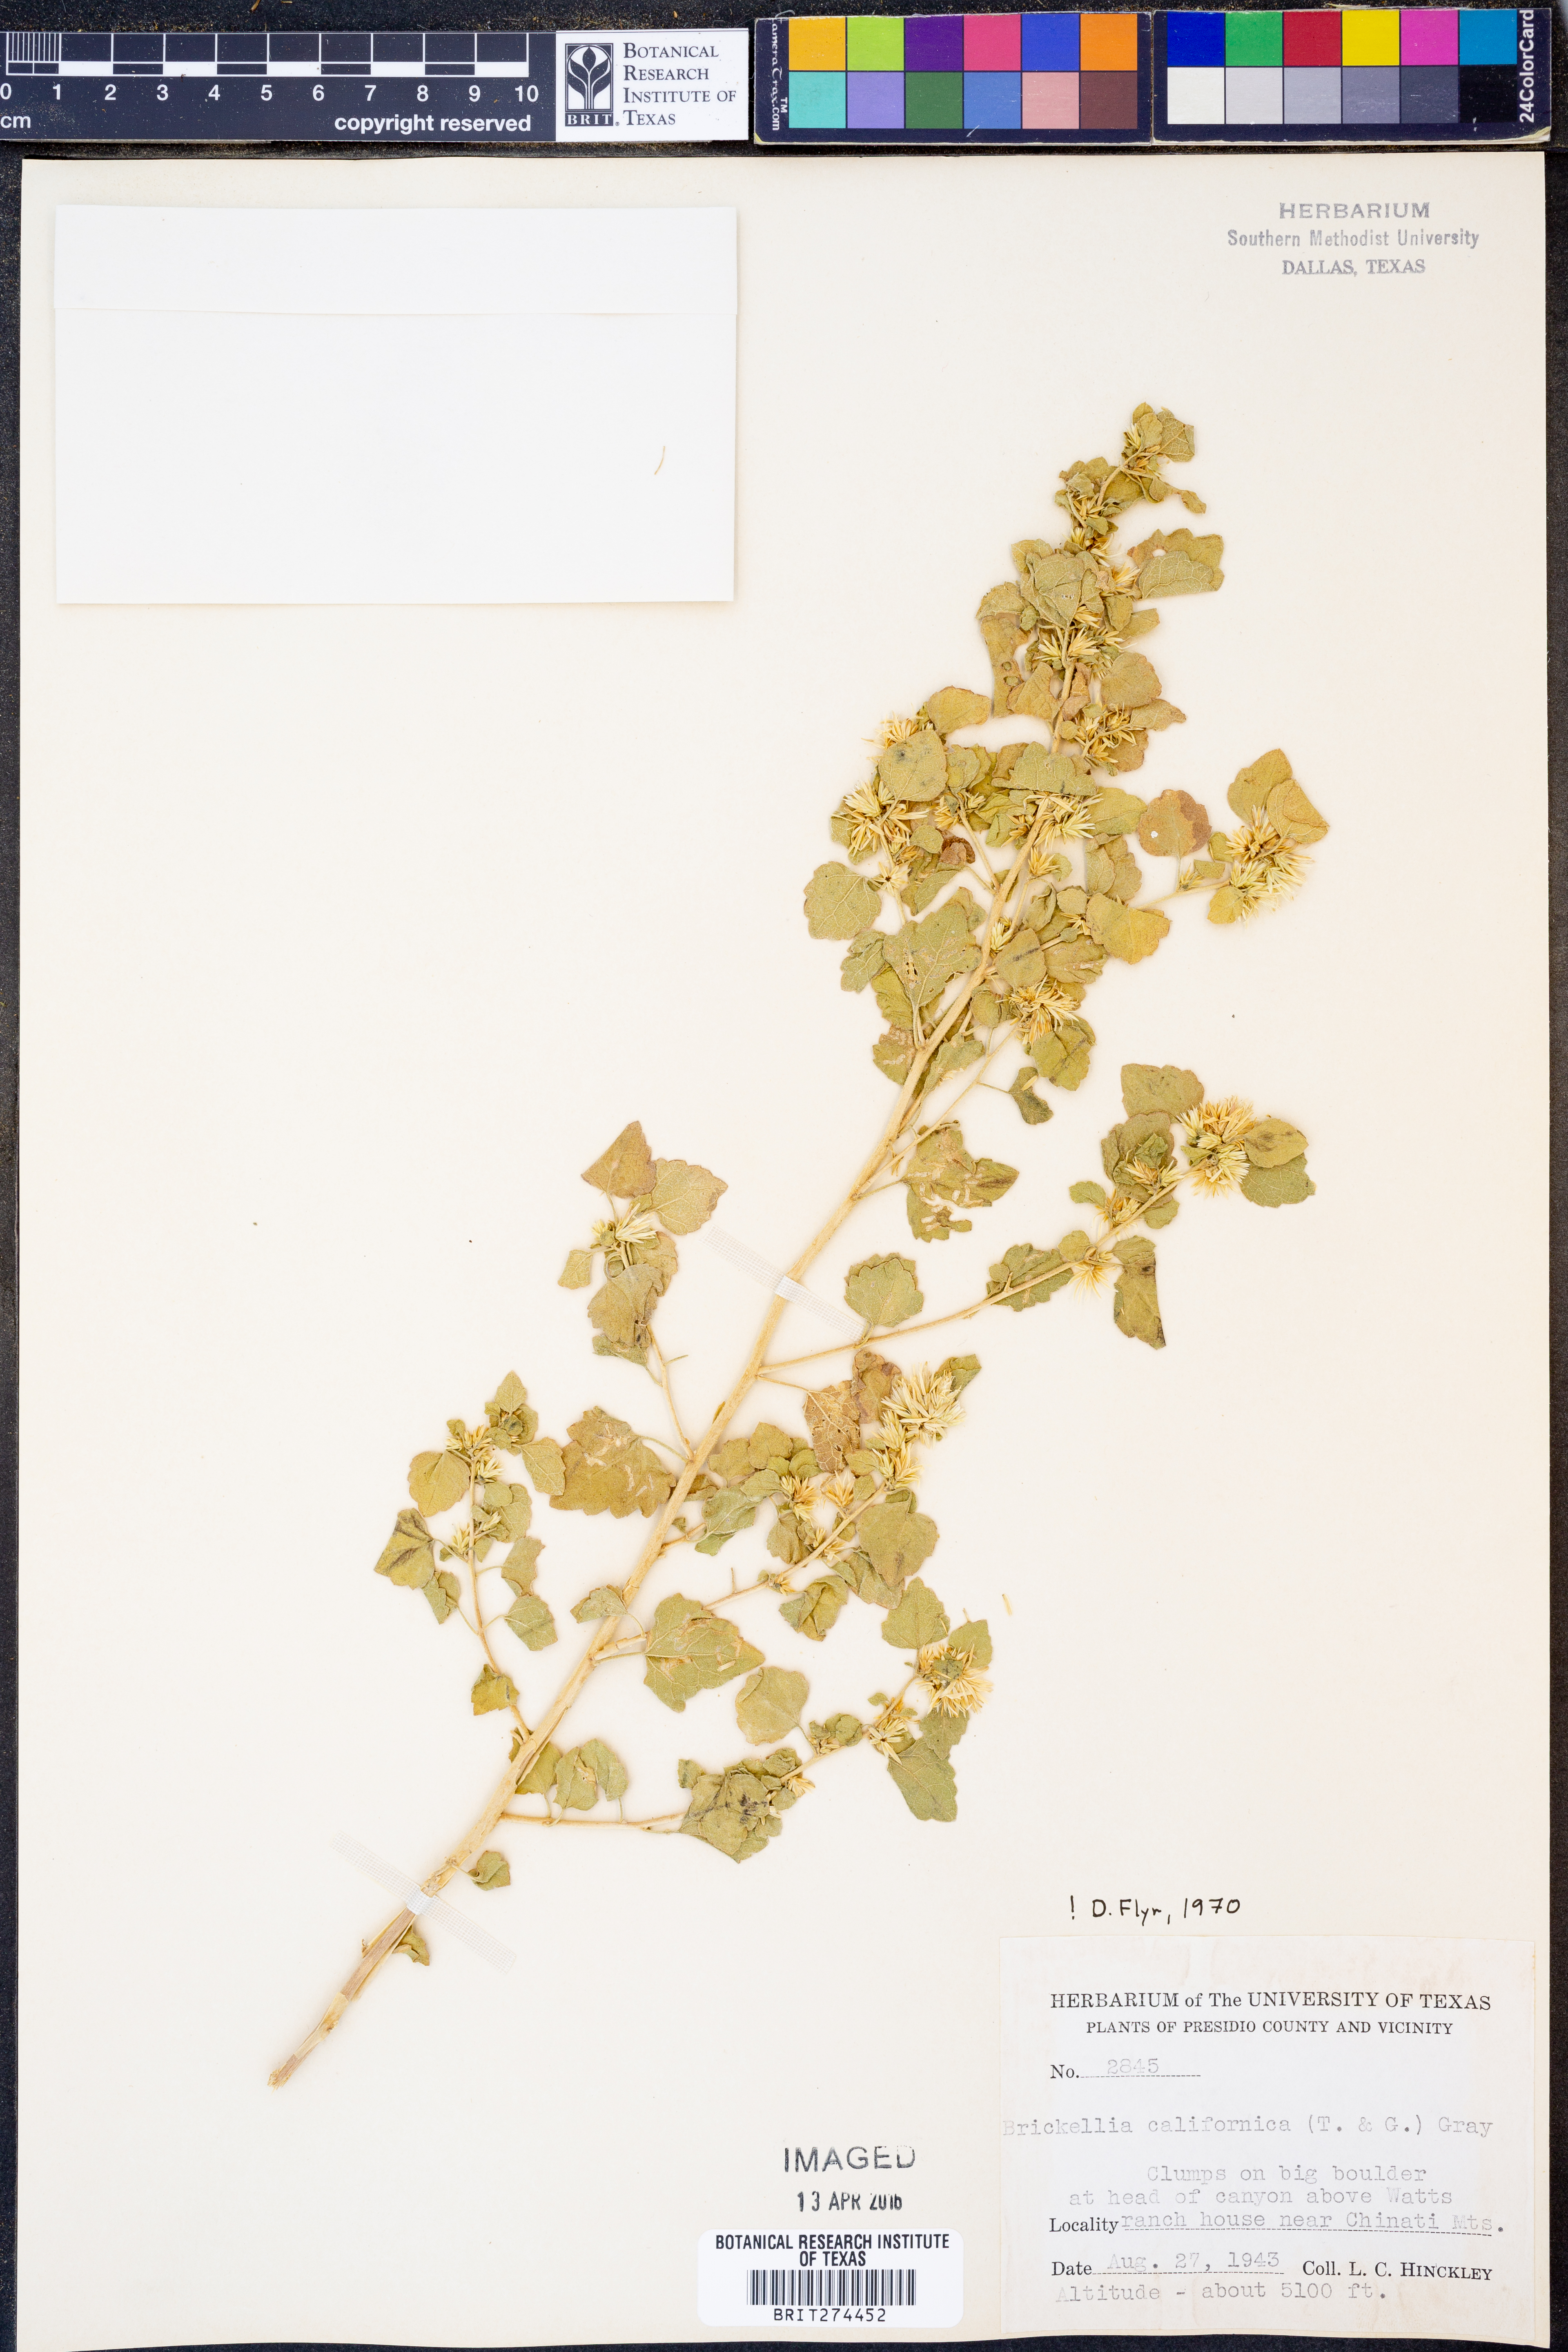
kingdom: Plantae
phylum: Tracheophyta
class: Magnoliopsida
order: Asterales
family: Asteraceae
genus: Brickellia
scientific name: Brickellia californica
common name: California brickellbush
